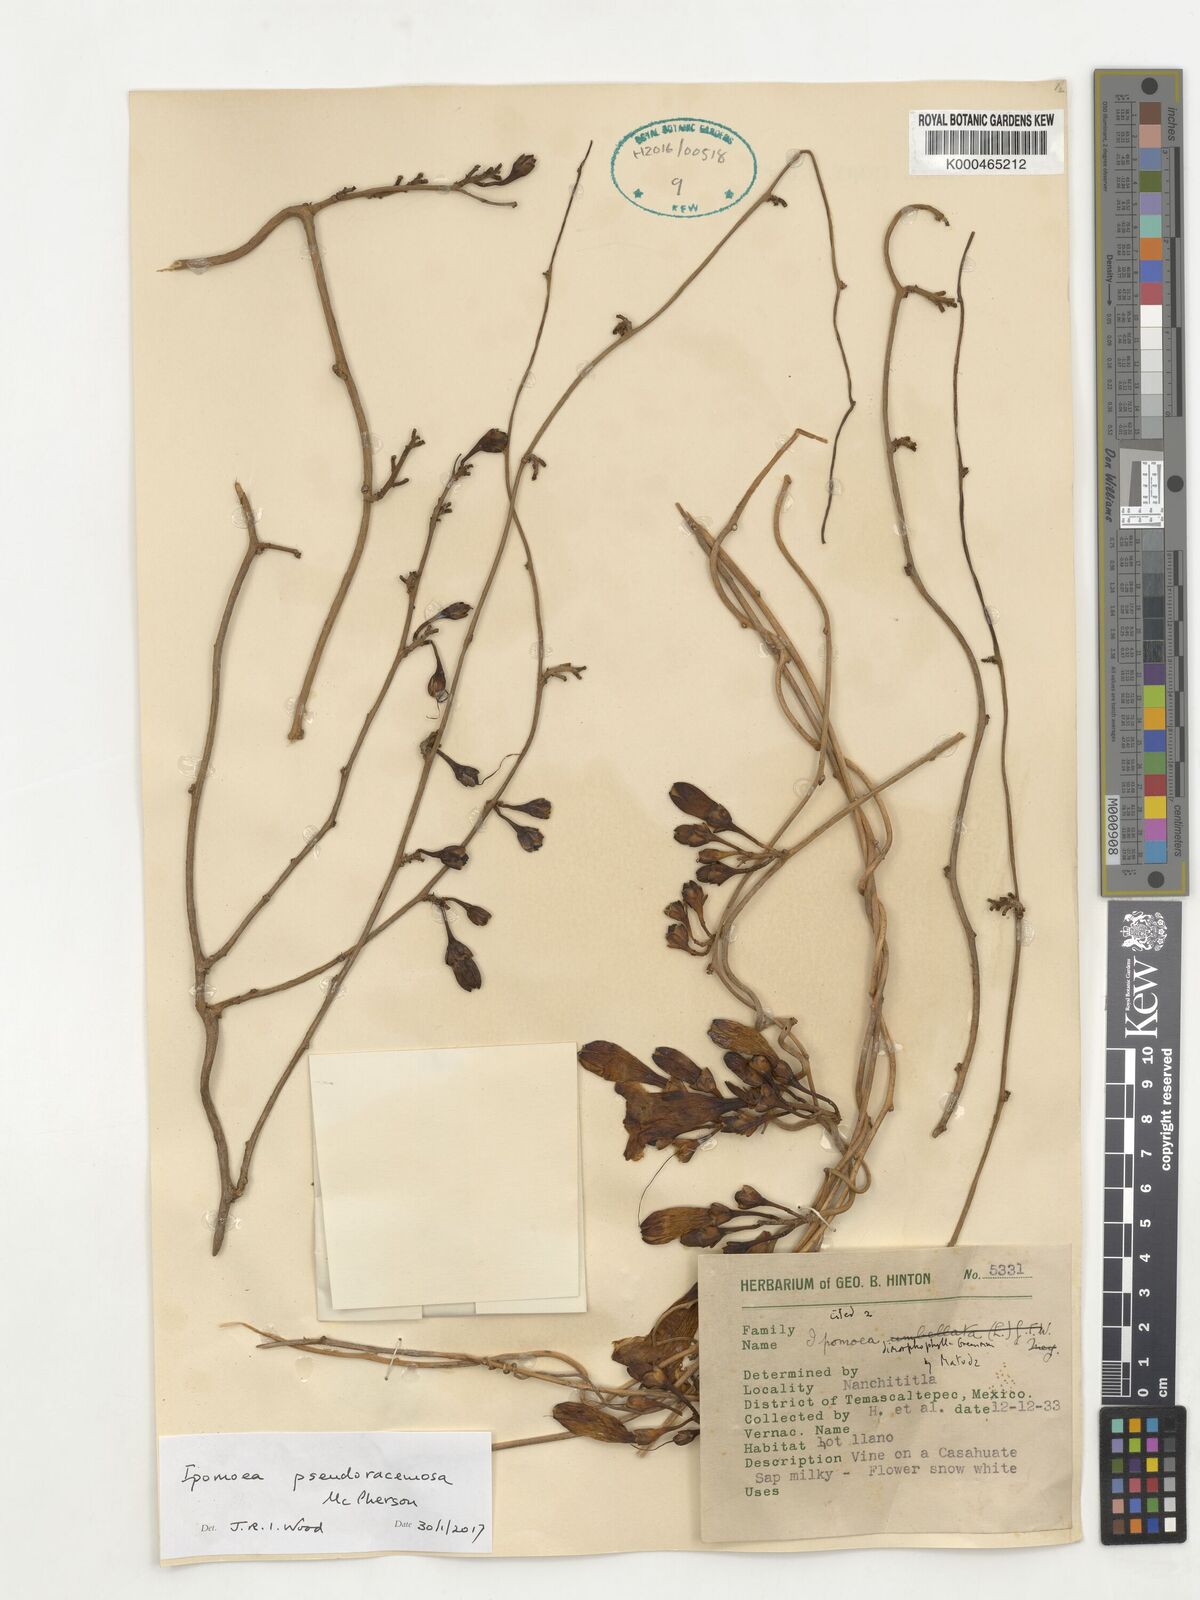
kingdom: Plantae
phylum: Tracheophyta
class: Magnoliopsida
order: Solanales
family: Convolvulaceae
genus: Ipomoea
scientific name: Ipomoea pseudoracemosa
